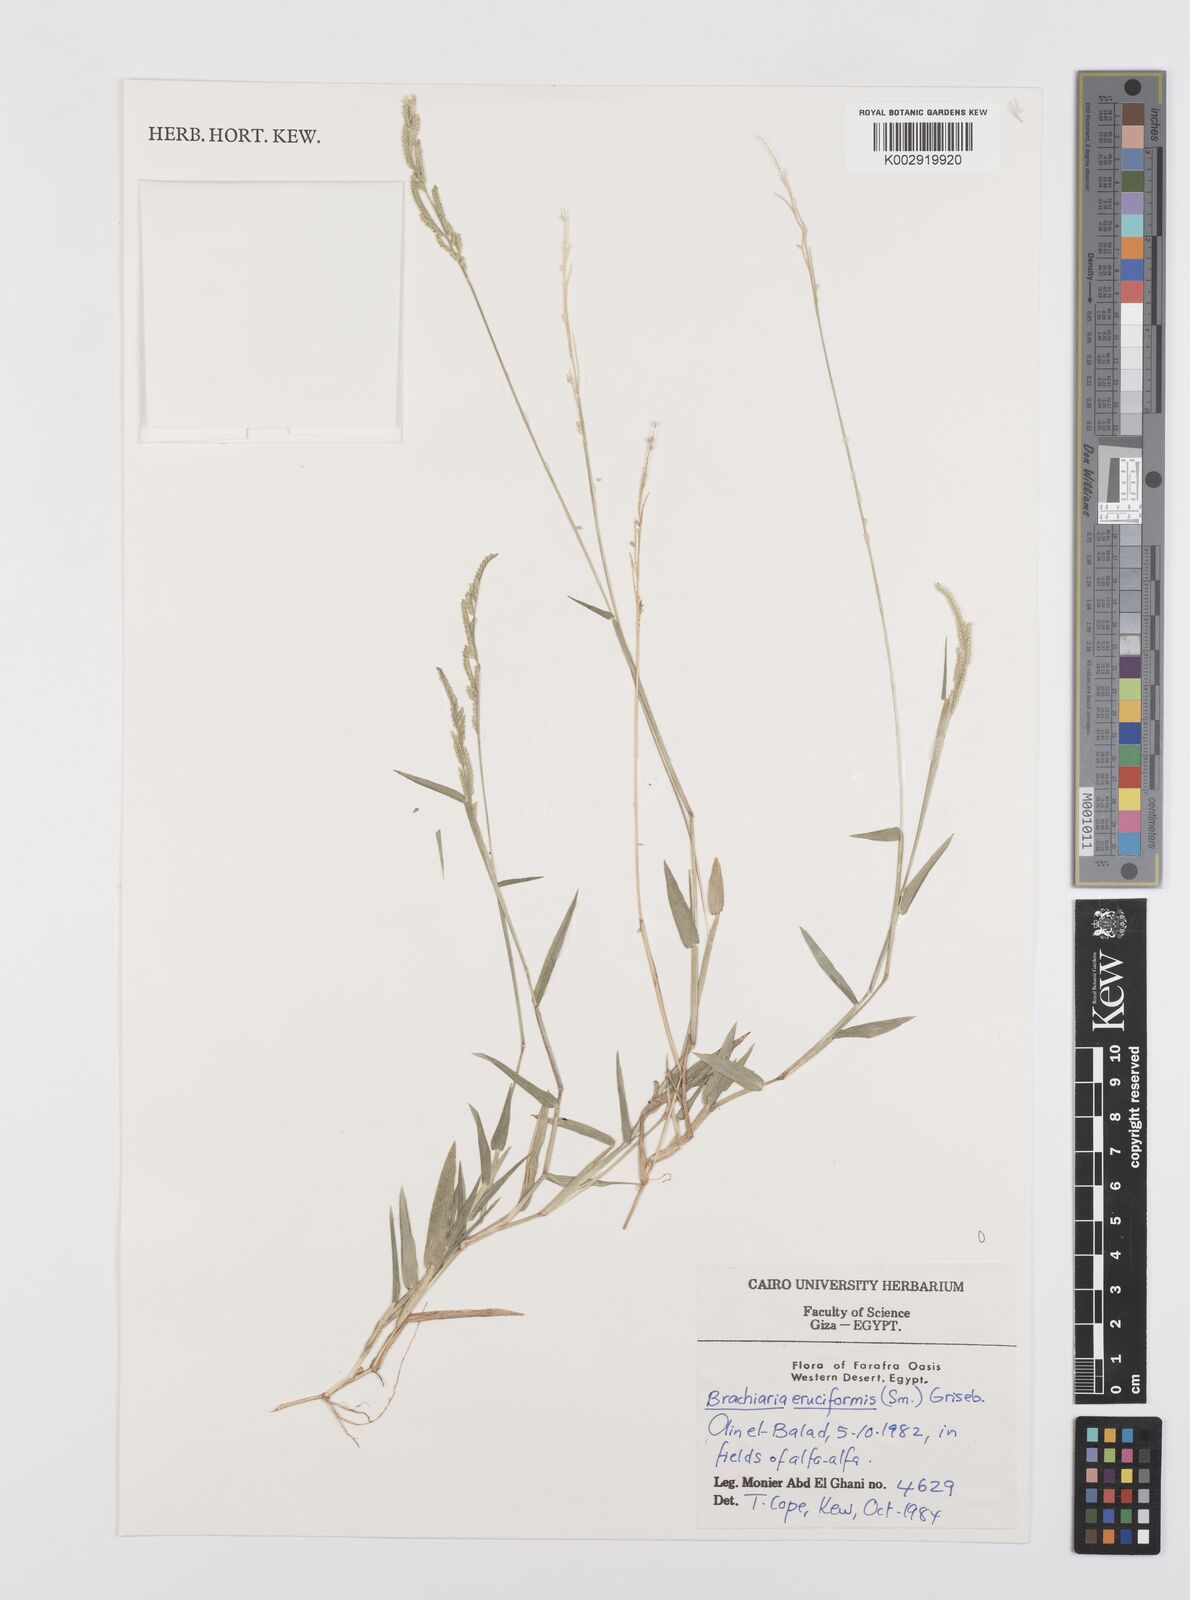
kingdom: Plantae
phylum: Tracheophyta
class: Liliopsida
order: Poales
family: Poaceae
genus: Moorochloa
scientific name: Moorochloa eruciformis
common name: Sweet signalgrass
